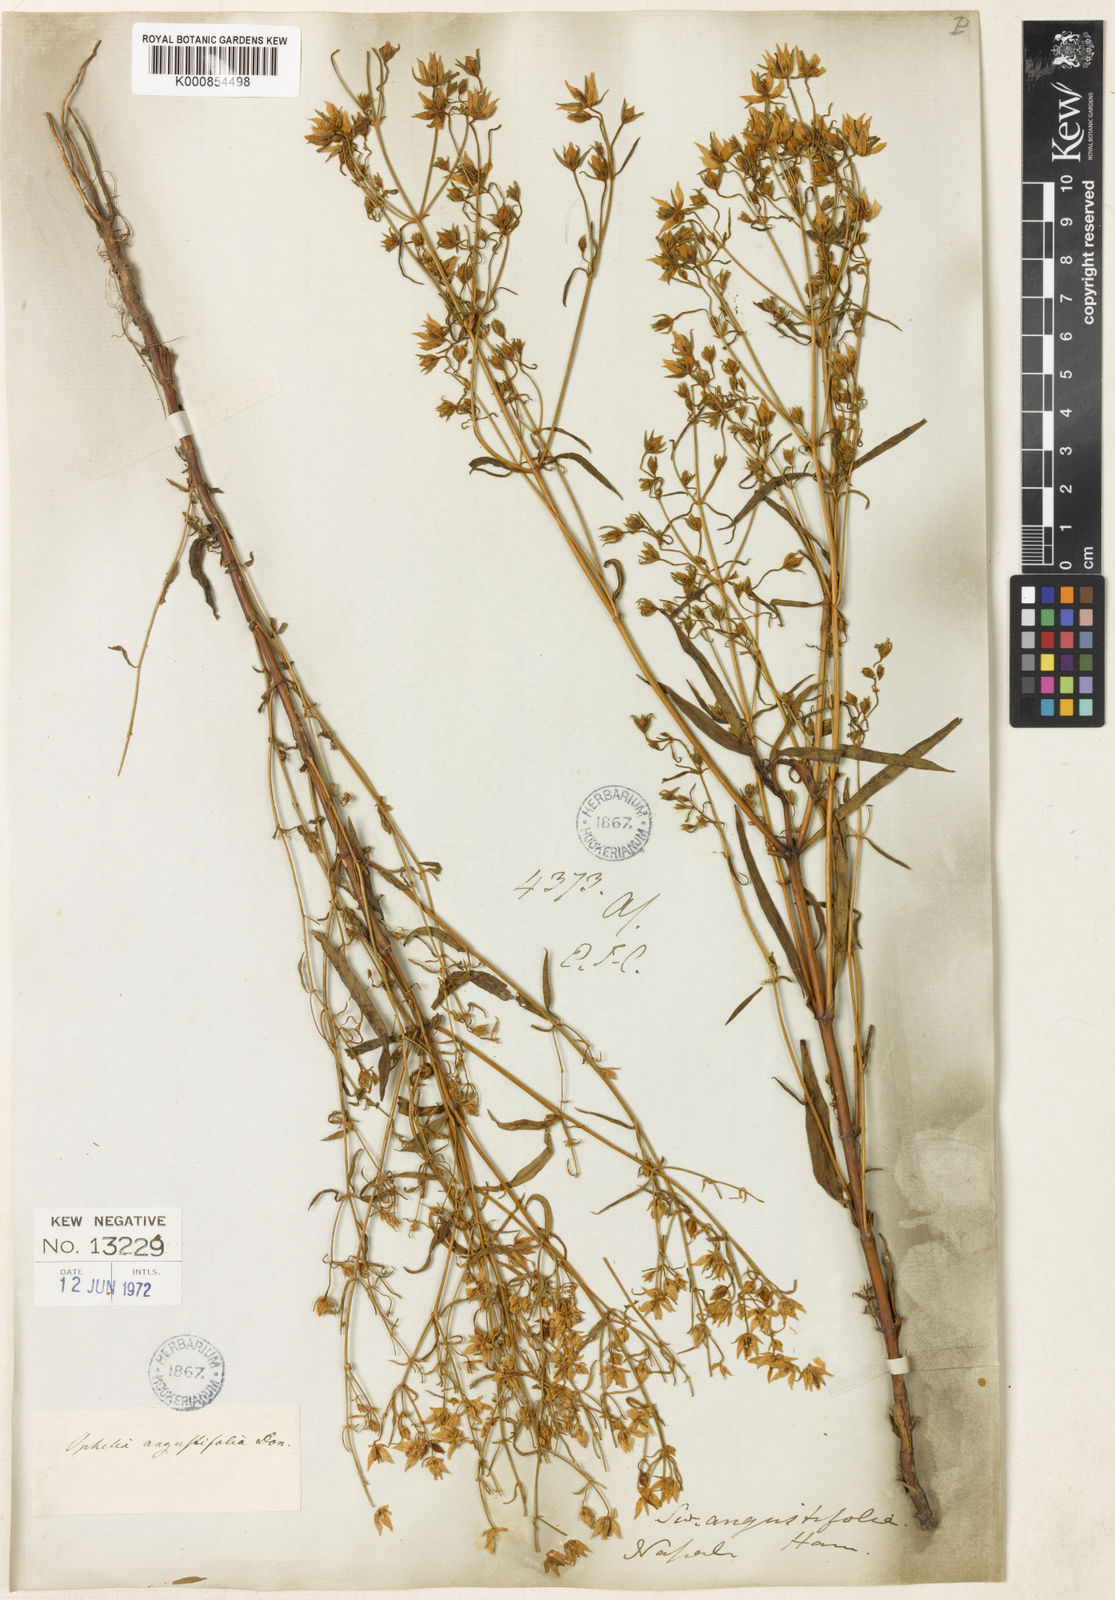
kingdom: Plantae
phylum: Tracheophyta
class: Magnoliopsida
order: Gentianales
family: Gentianaceae
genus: Swertia
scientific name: Swertia angustifolia
